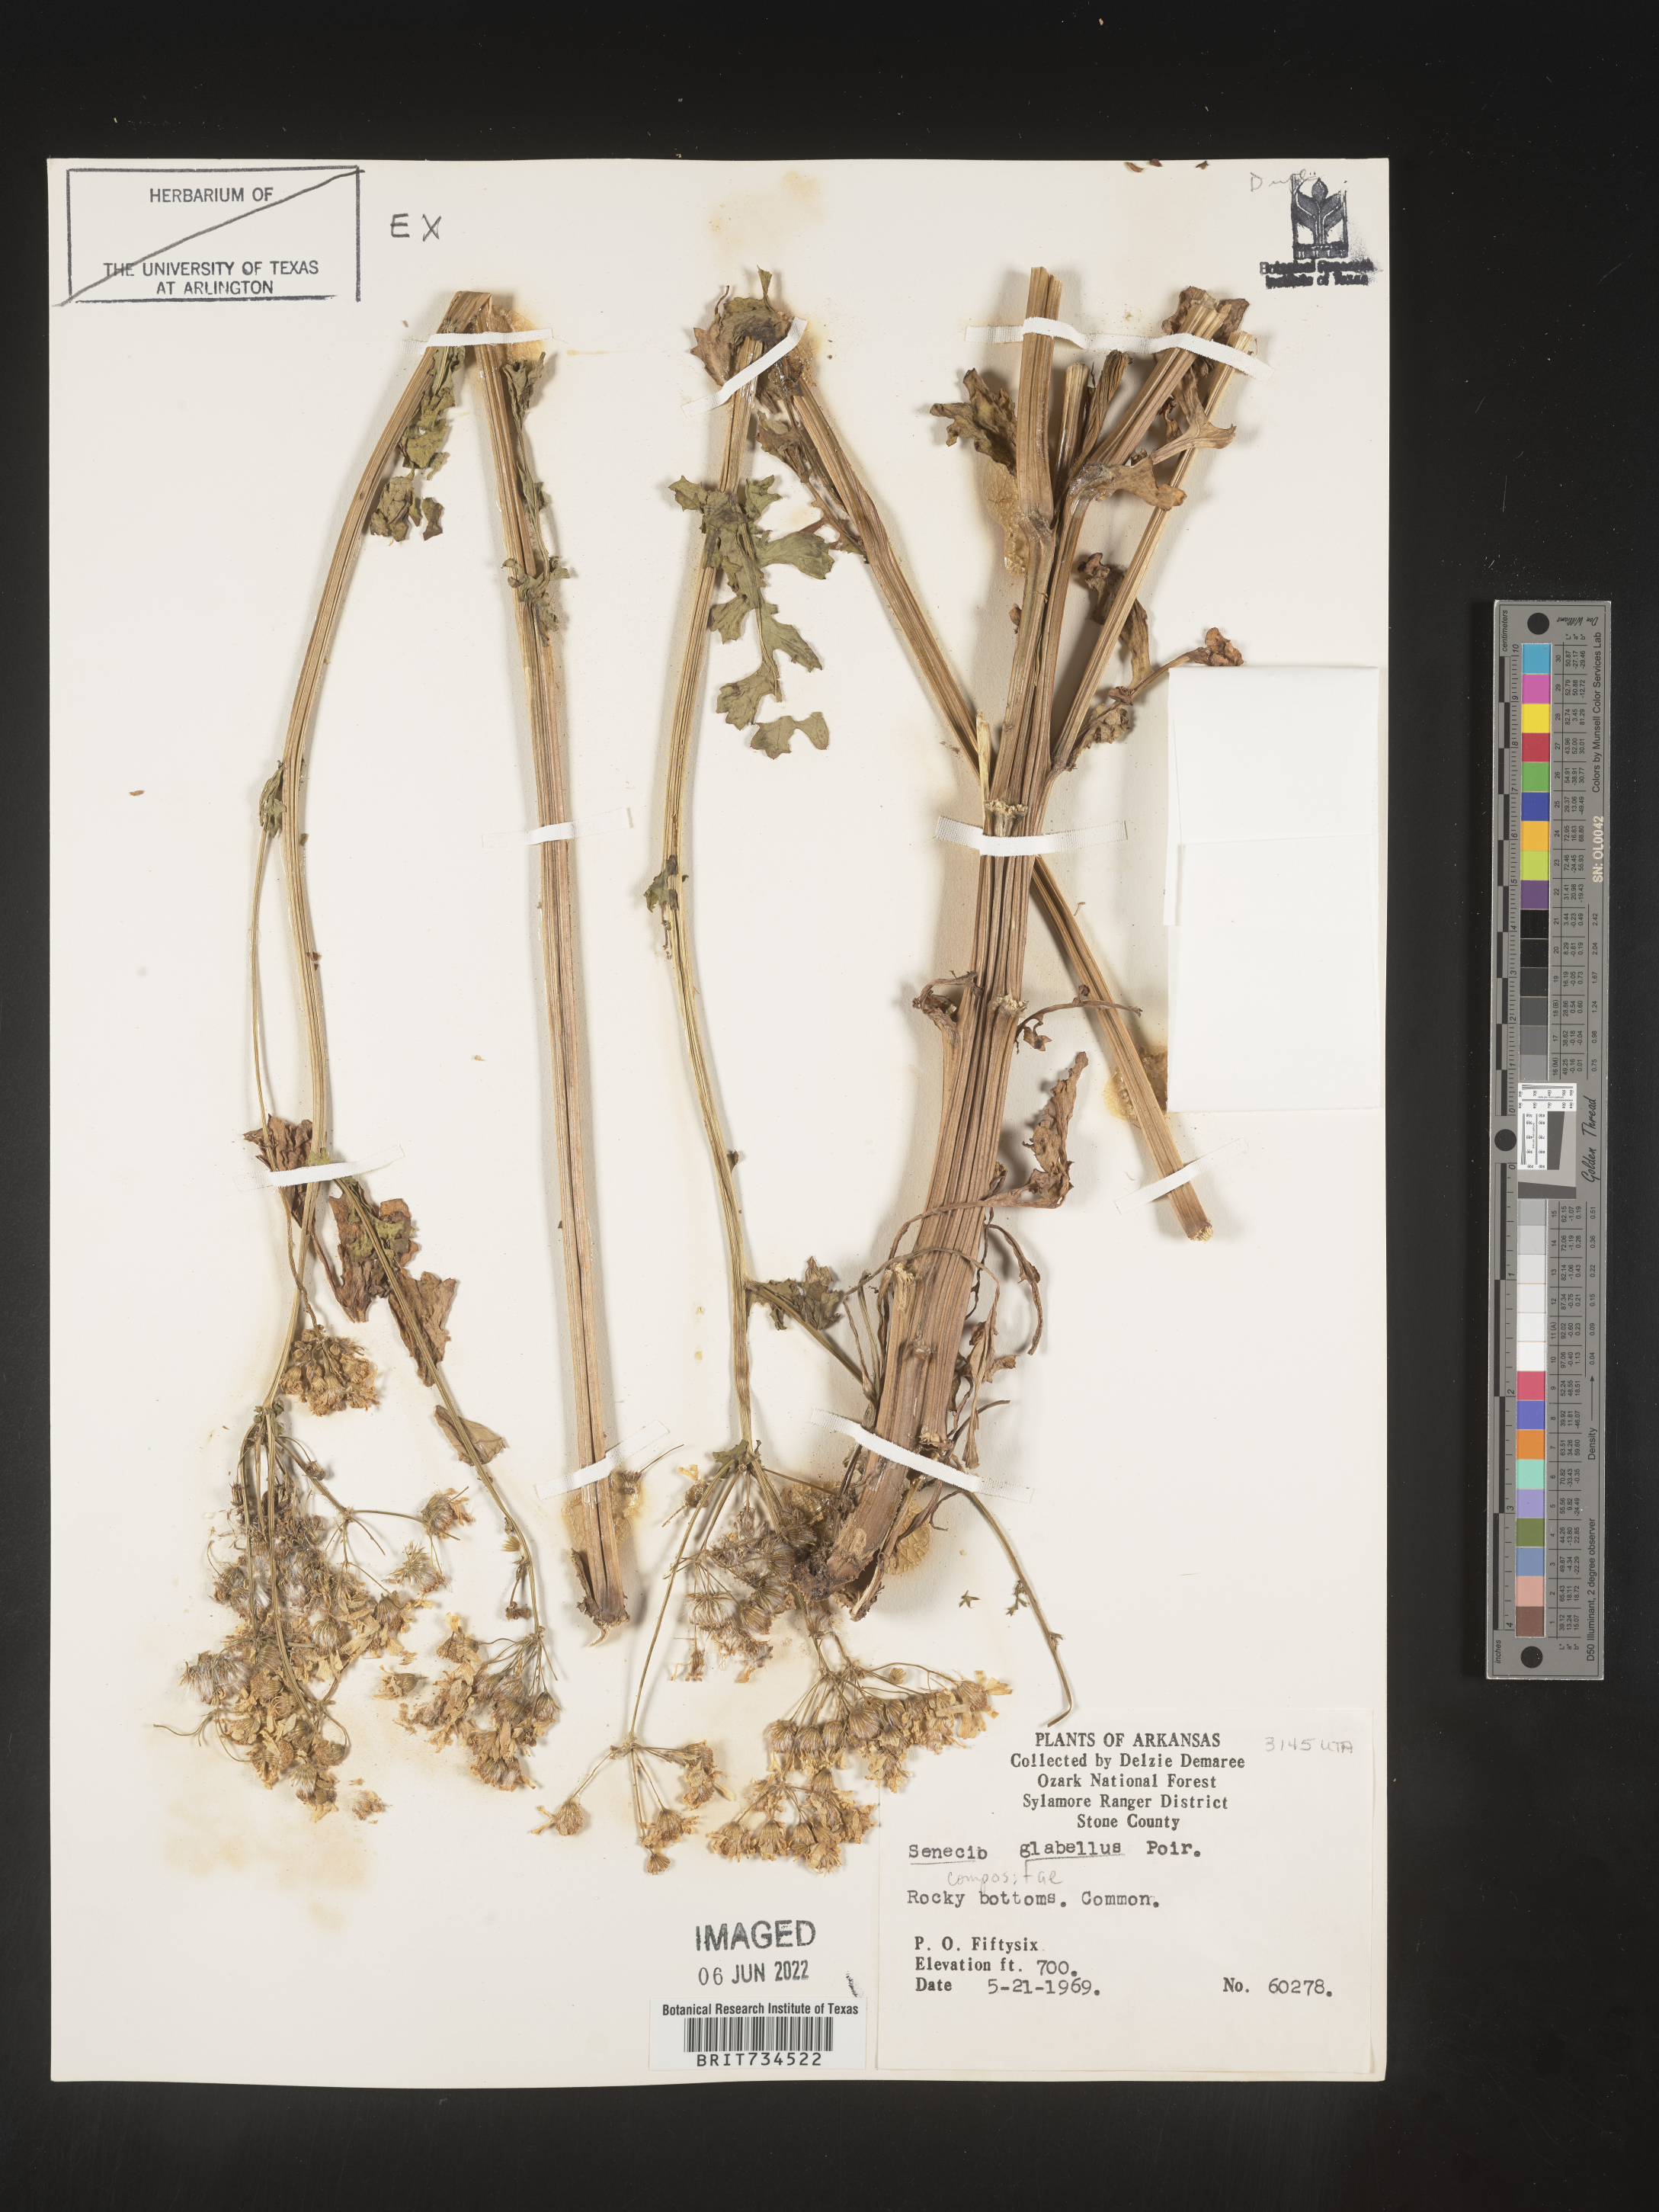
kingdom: Plantae
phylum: Tracheophyta
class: Magnoliopsida
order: Asterales
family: Asteraceae
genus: Packera
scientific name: Packera glabella
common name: Butterweed
